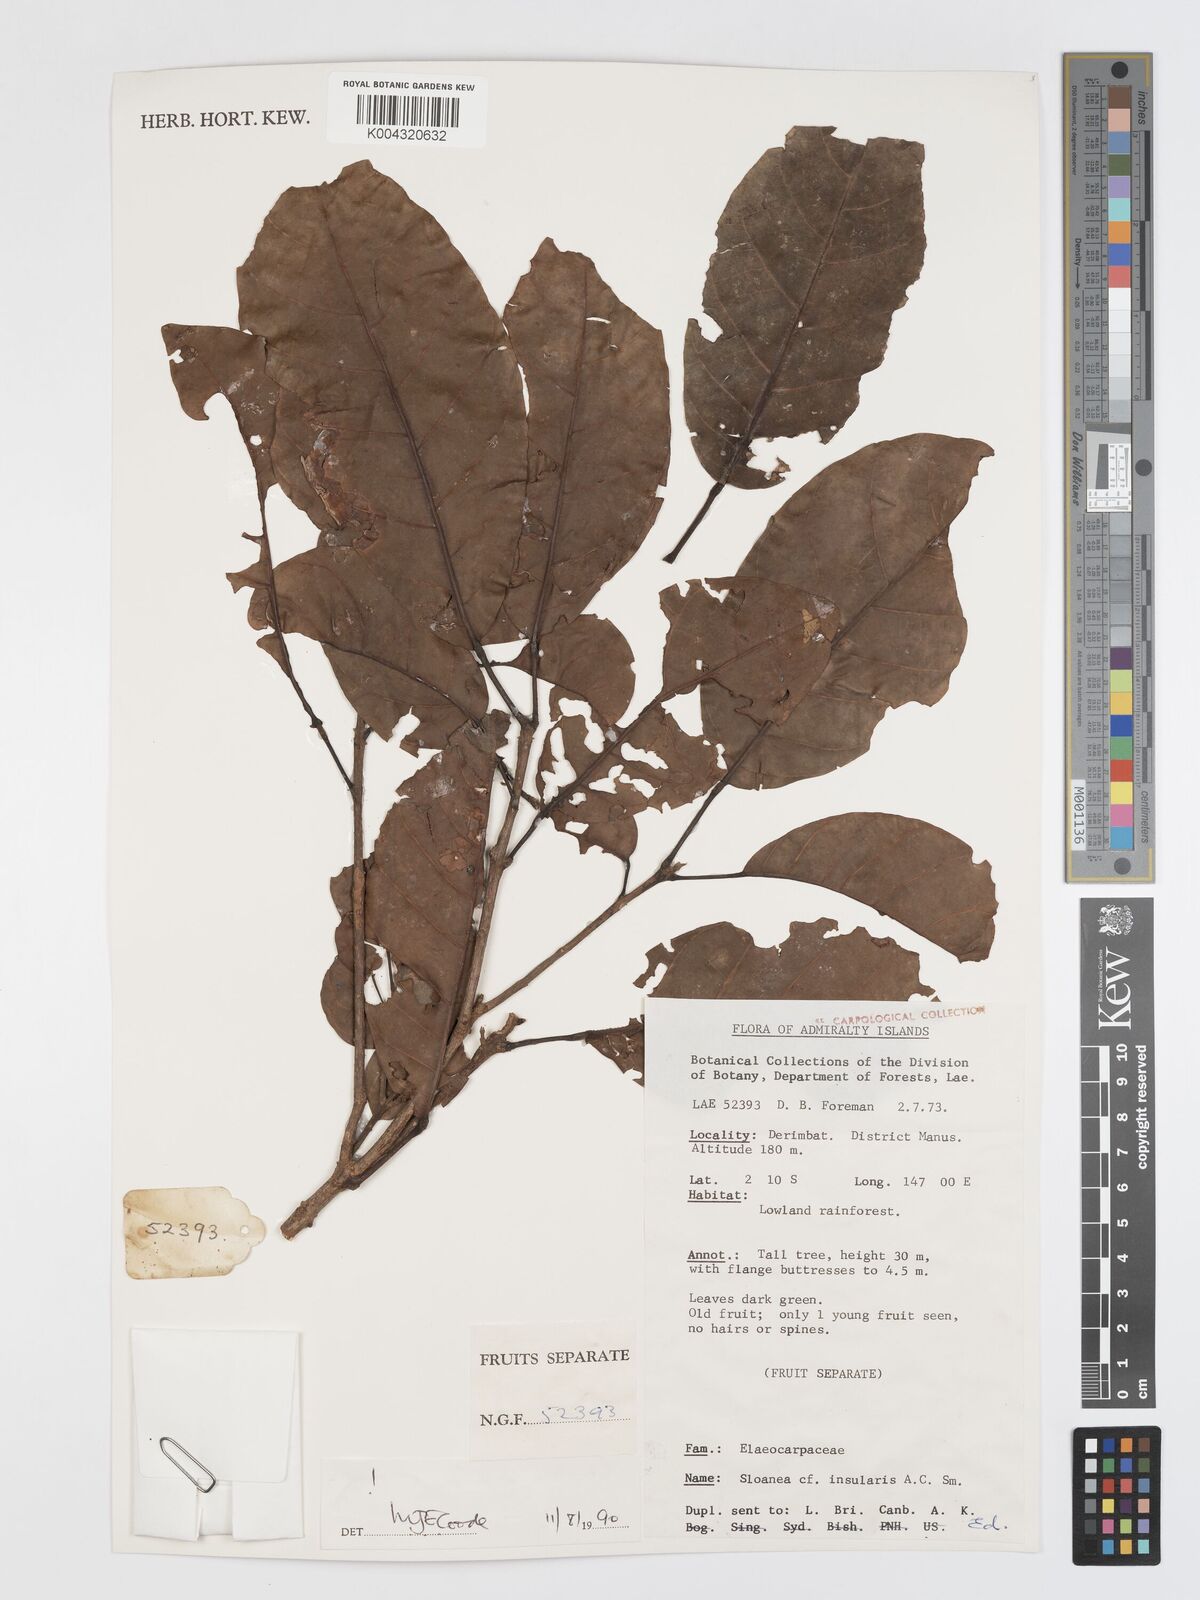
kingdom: Plantae
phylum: Tracheophyta
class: Magnoliopsida
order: Oxalidales
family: Elaeocarpaceae
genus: Sloanea
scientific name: Sloanea insularis
